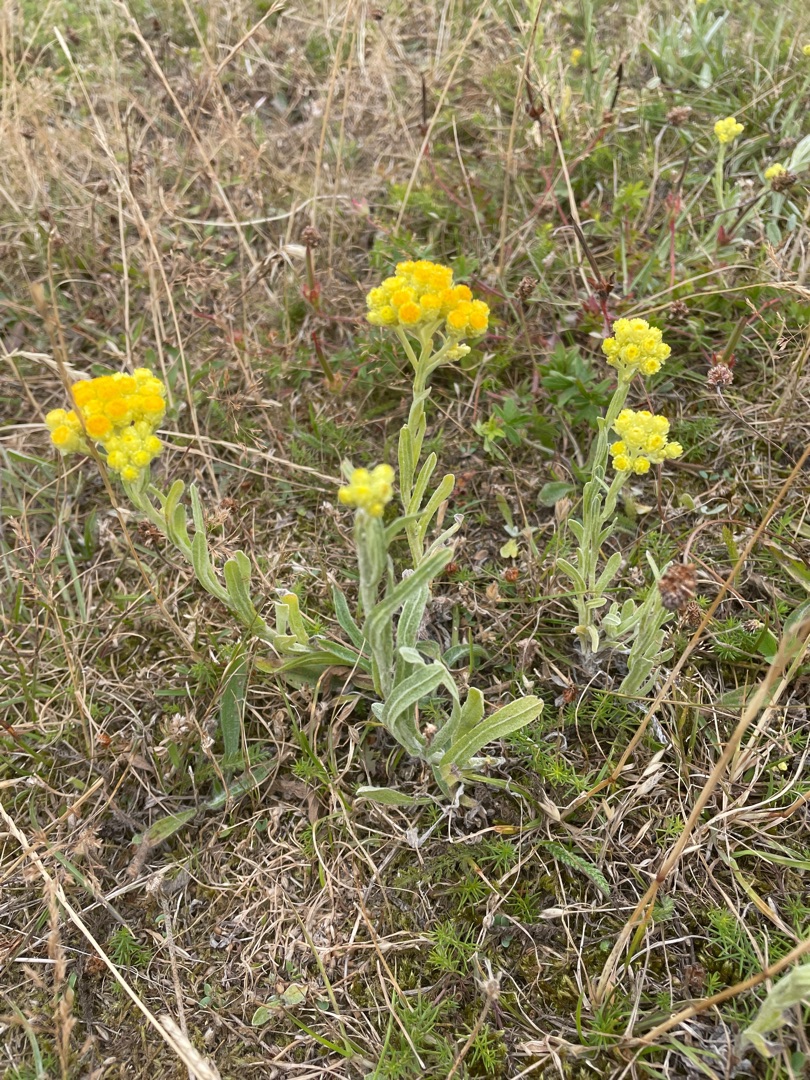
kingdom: Plantae
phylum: Tracheophyta
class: Magnoliopsida
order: Asterales
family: Asteraceae
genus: Helichrysum
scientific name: Helichrysum arenarium
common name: Gul evighedsblomst
